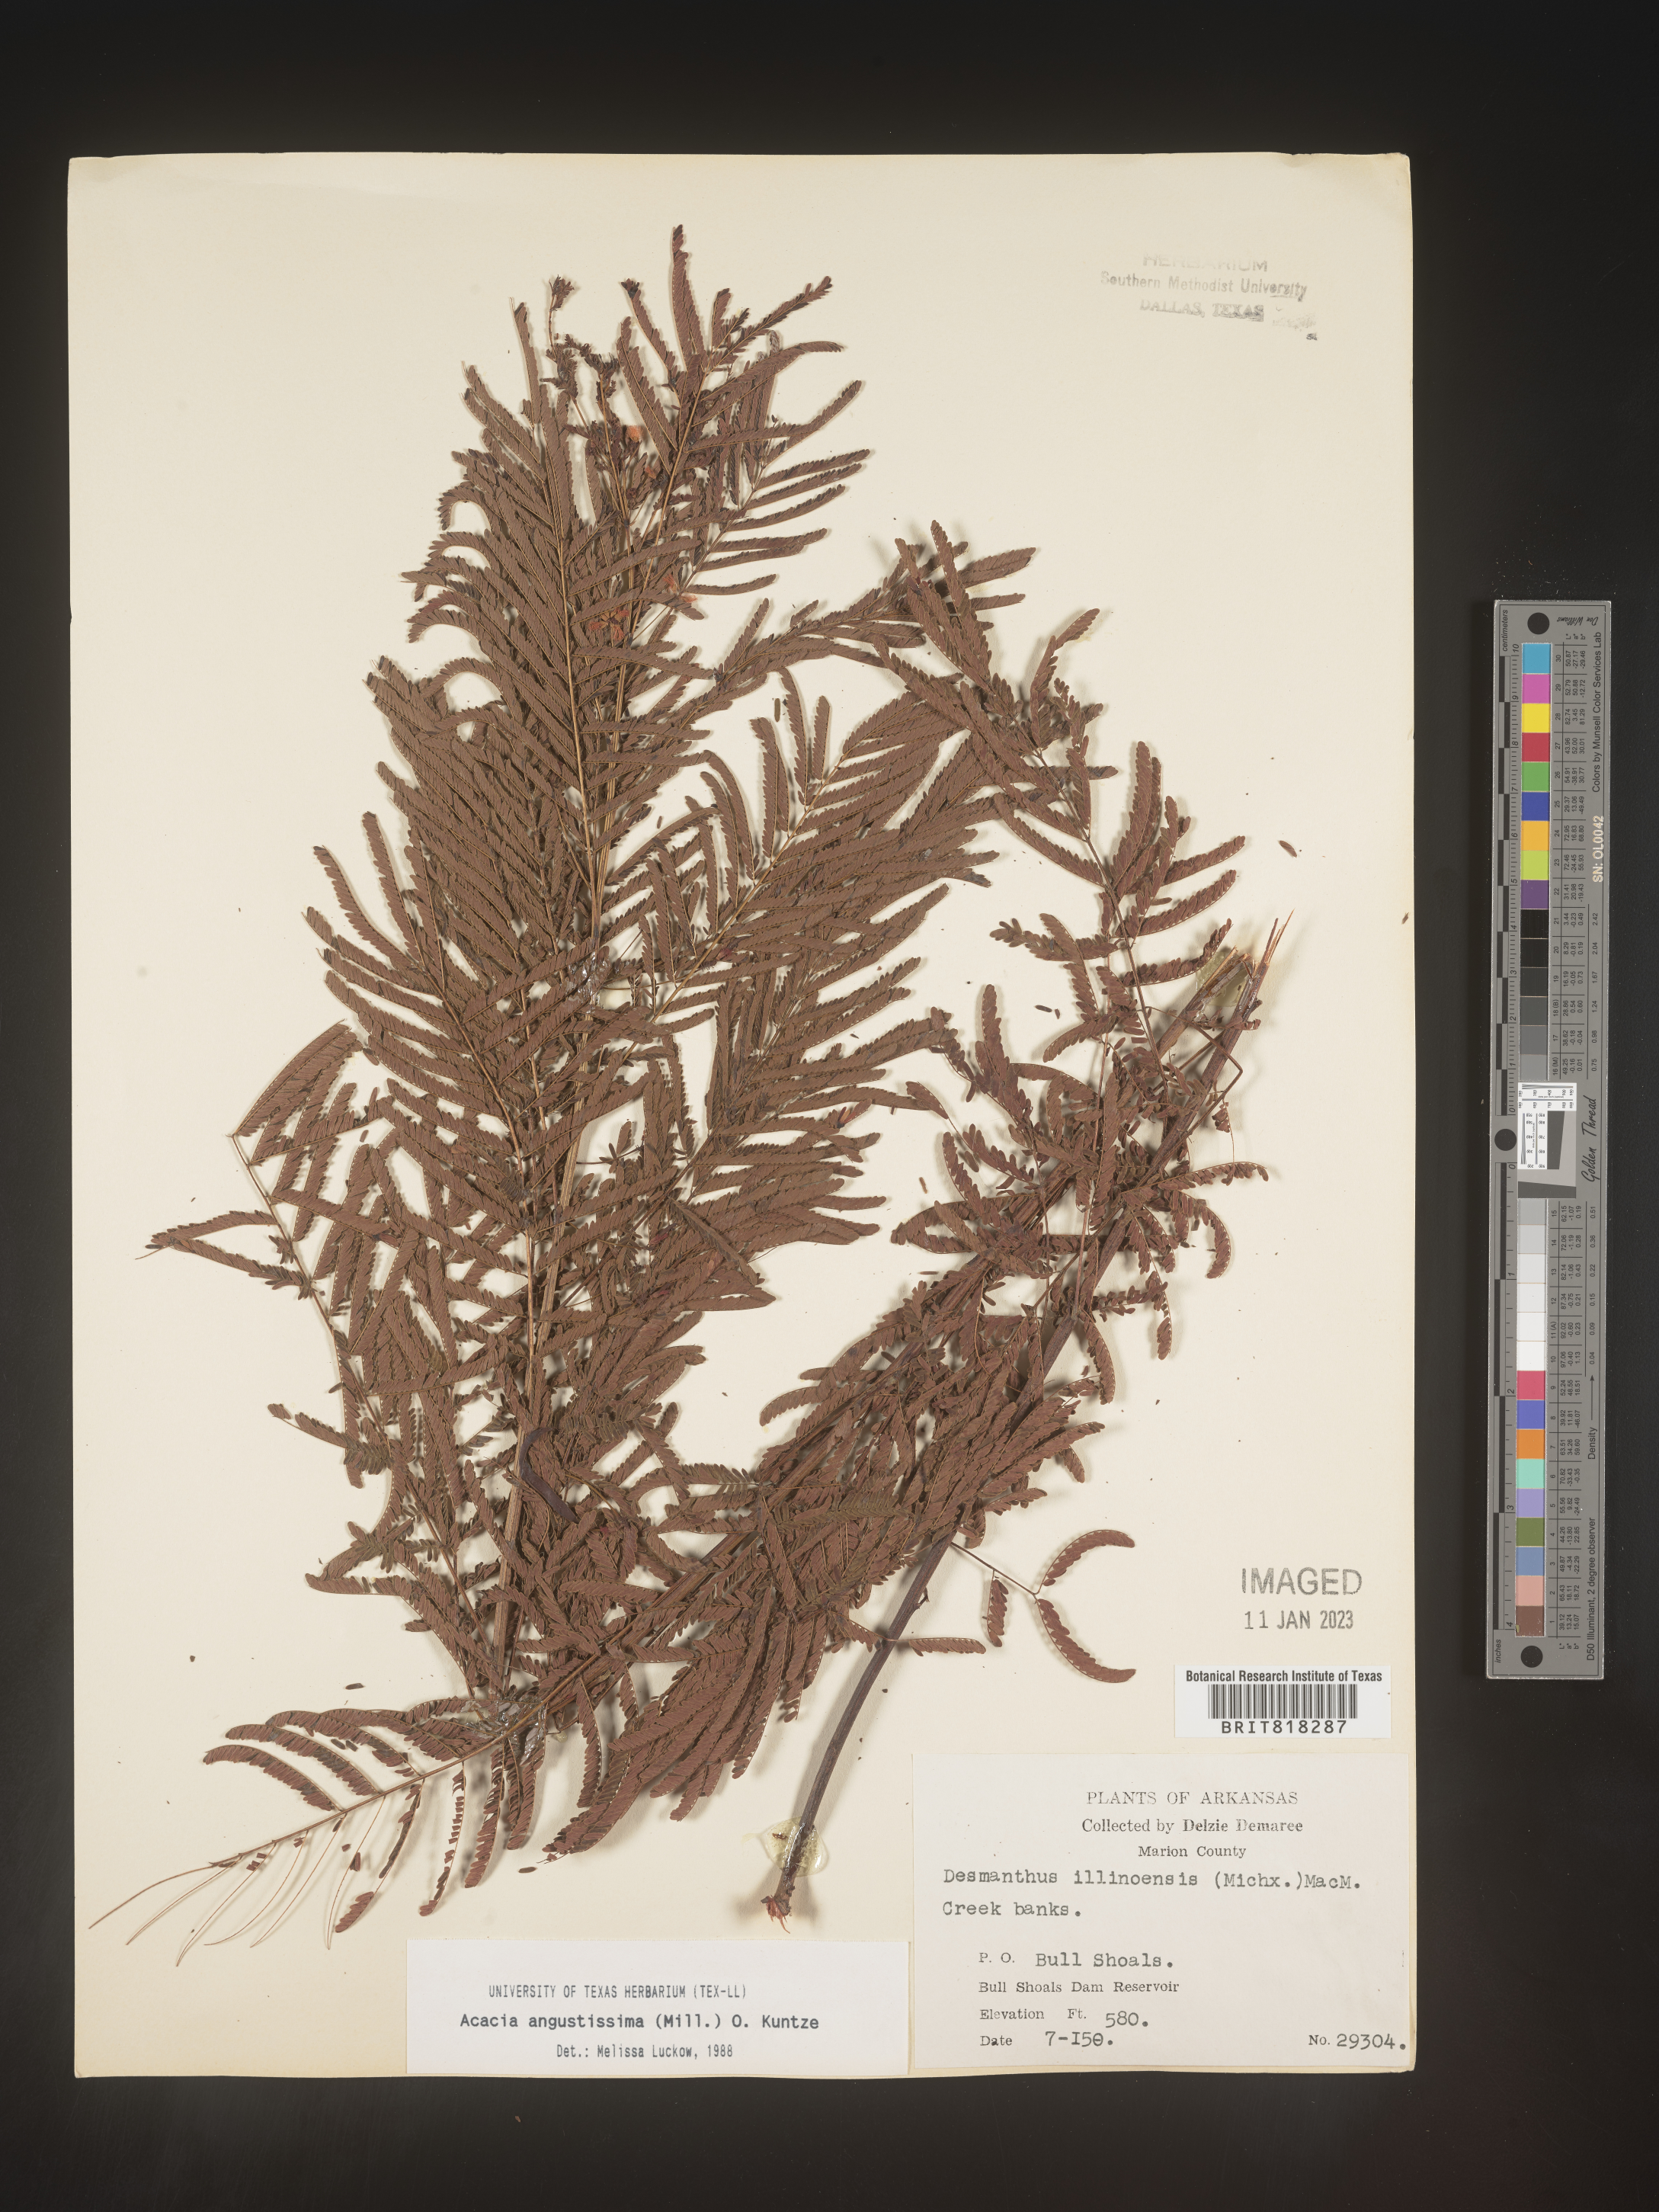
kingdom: Plantae
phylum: Tracheophyta
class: Magnoliopsida
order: Fabales
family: Fabaceae
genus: Desmanthus
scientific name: Desmanthus
